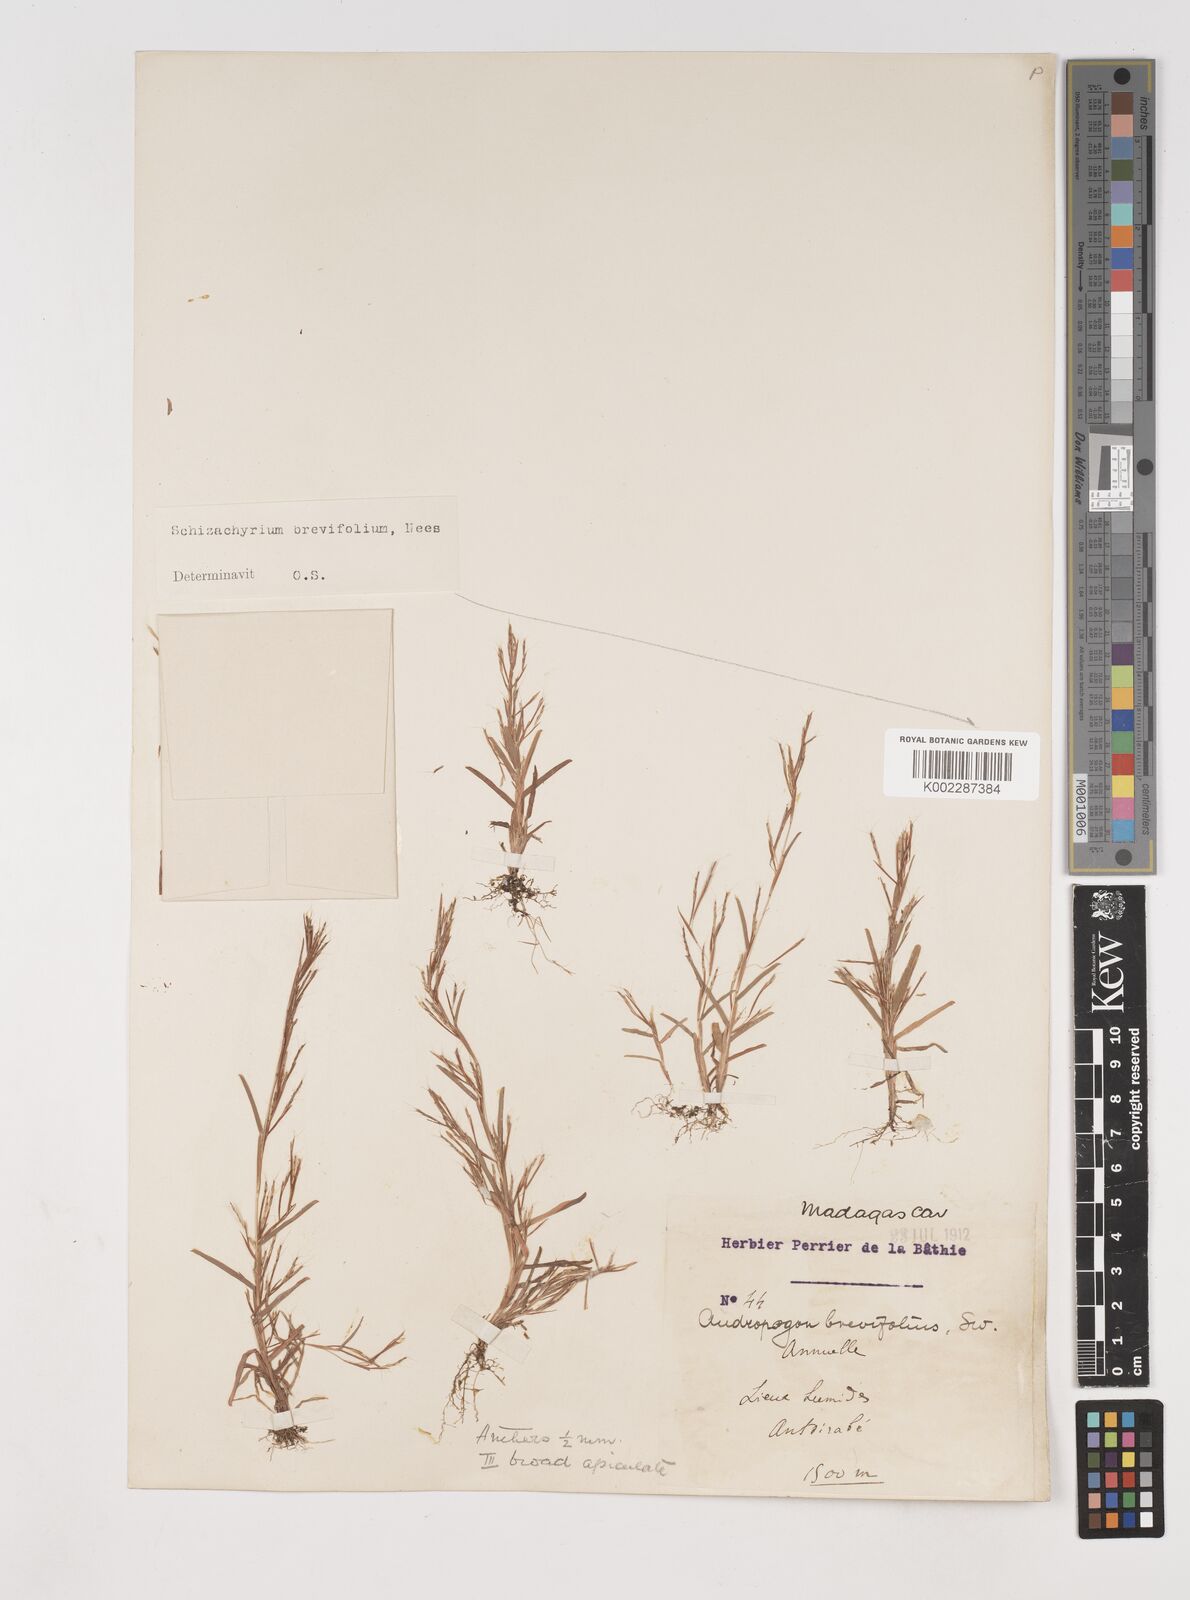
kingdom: Plantae
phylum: Tracheophyta
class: Liliopsida
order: Poales
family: Poaceae
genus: Schizachyrium
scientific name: Schizachyrium brevifolium
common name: Serillo dulce
